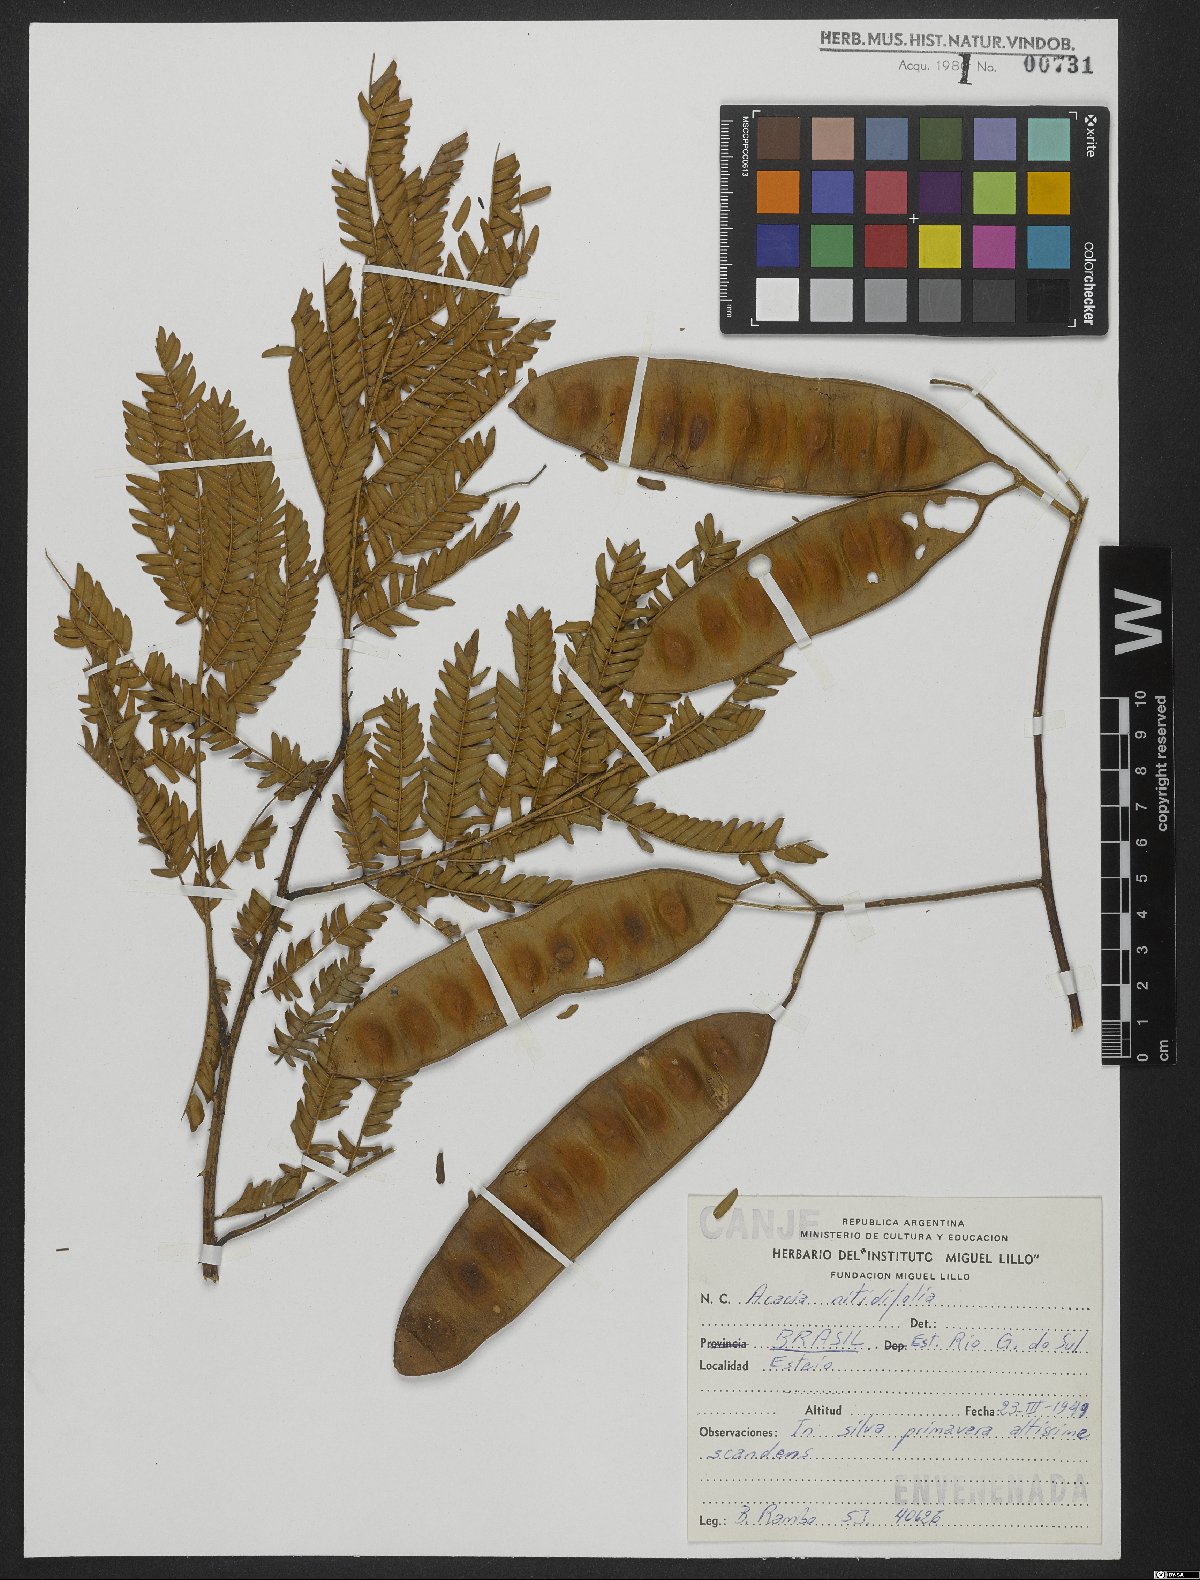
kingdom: Plantae
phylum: Tracheophyta
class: Magnoliopsida
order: Fabales
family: Fabaceae
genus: Senegalia
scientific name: Senegalia nitidifolia
